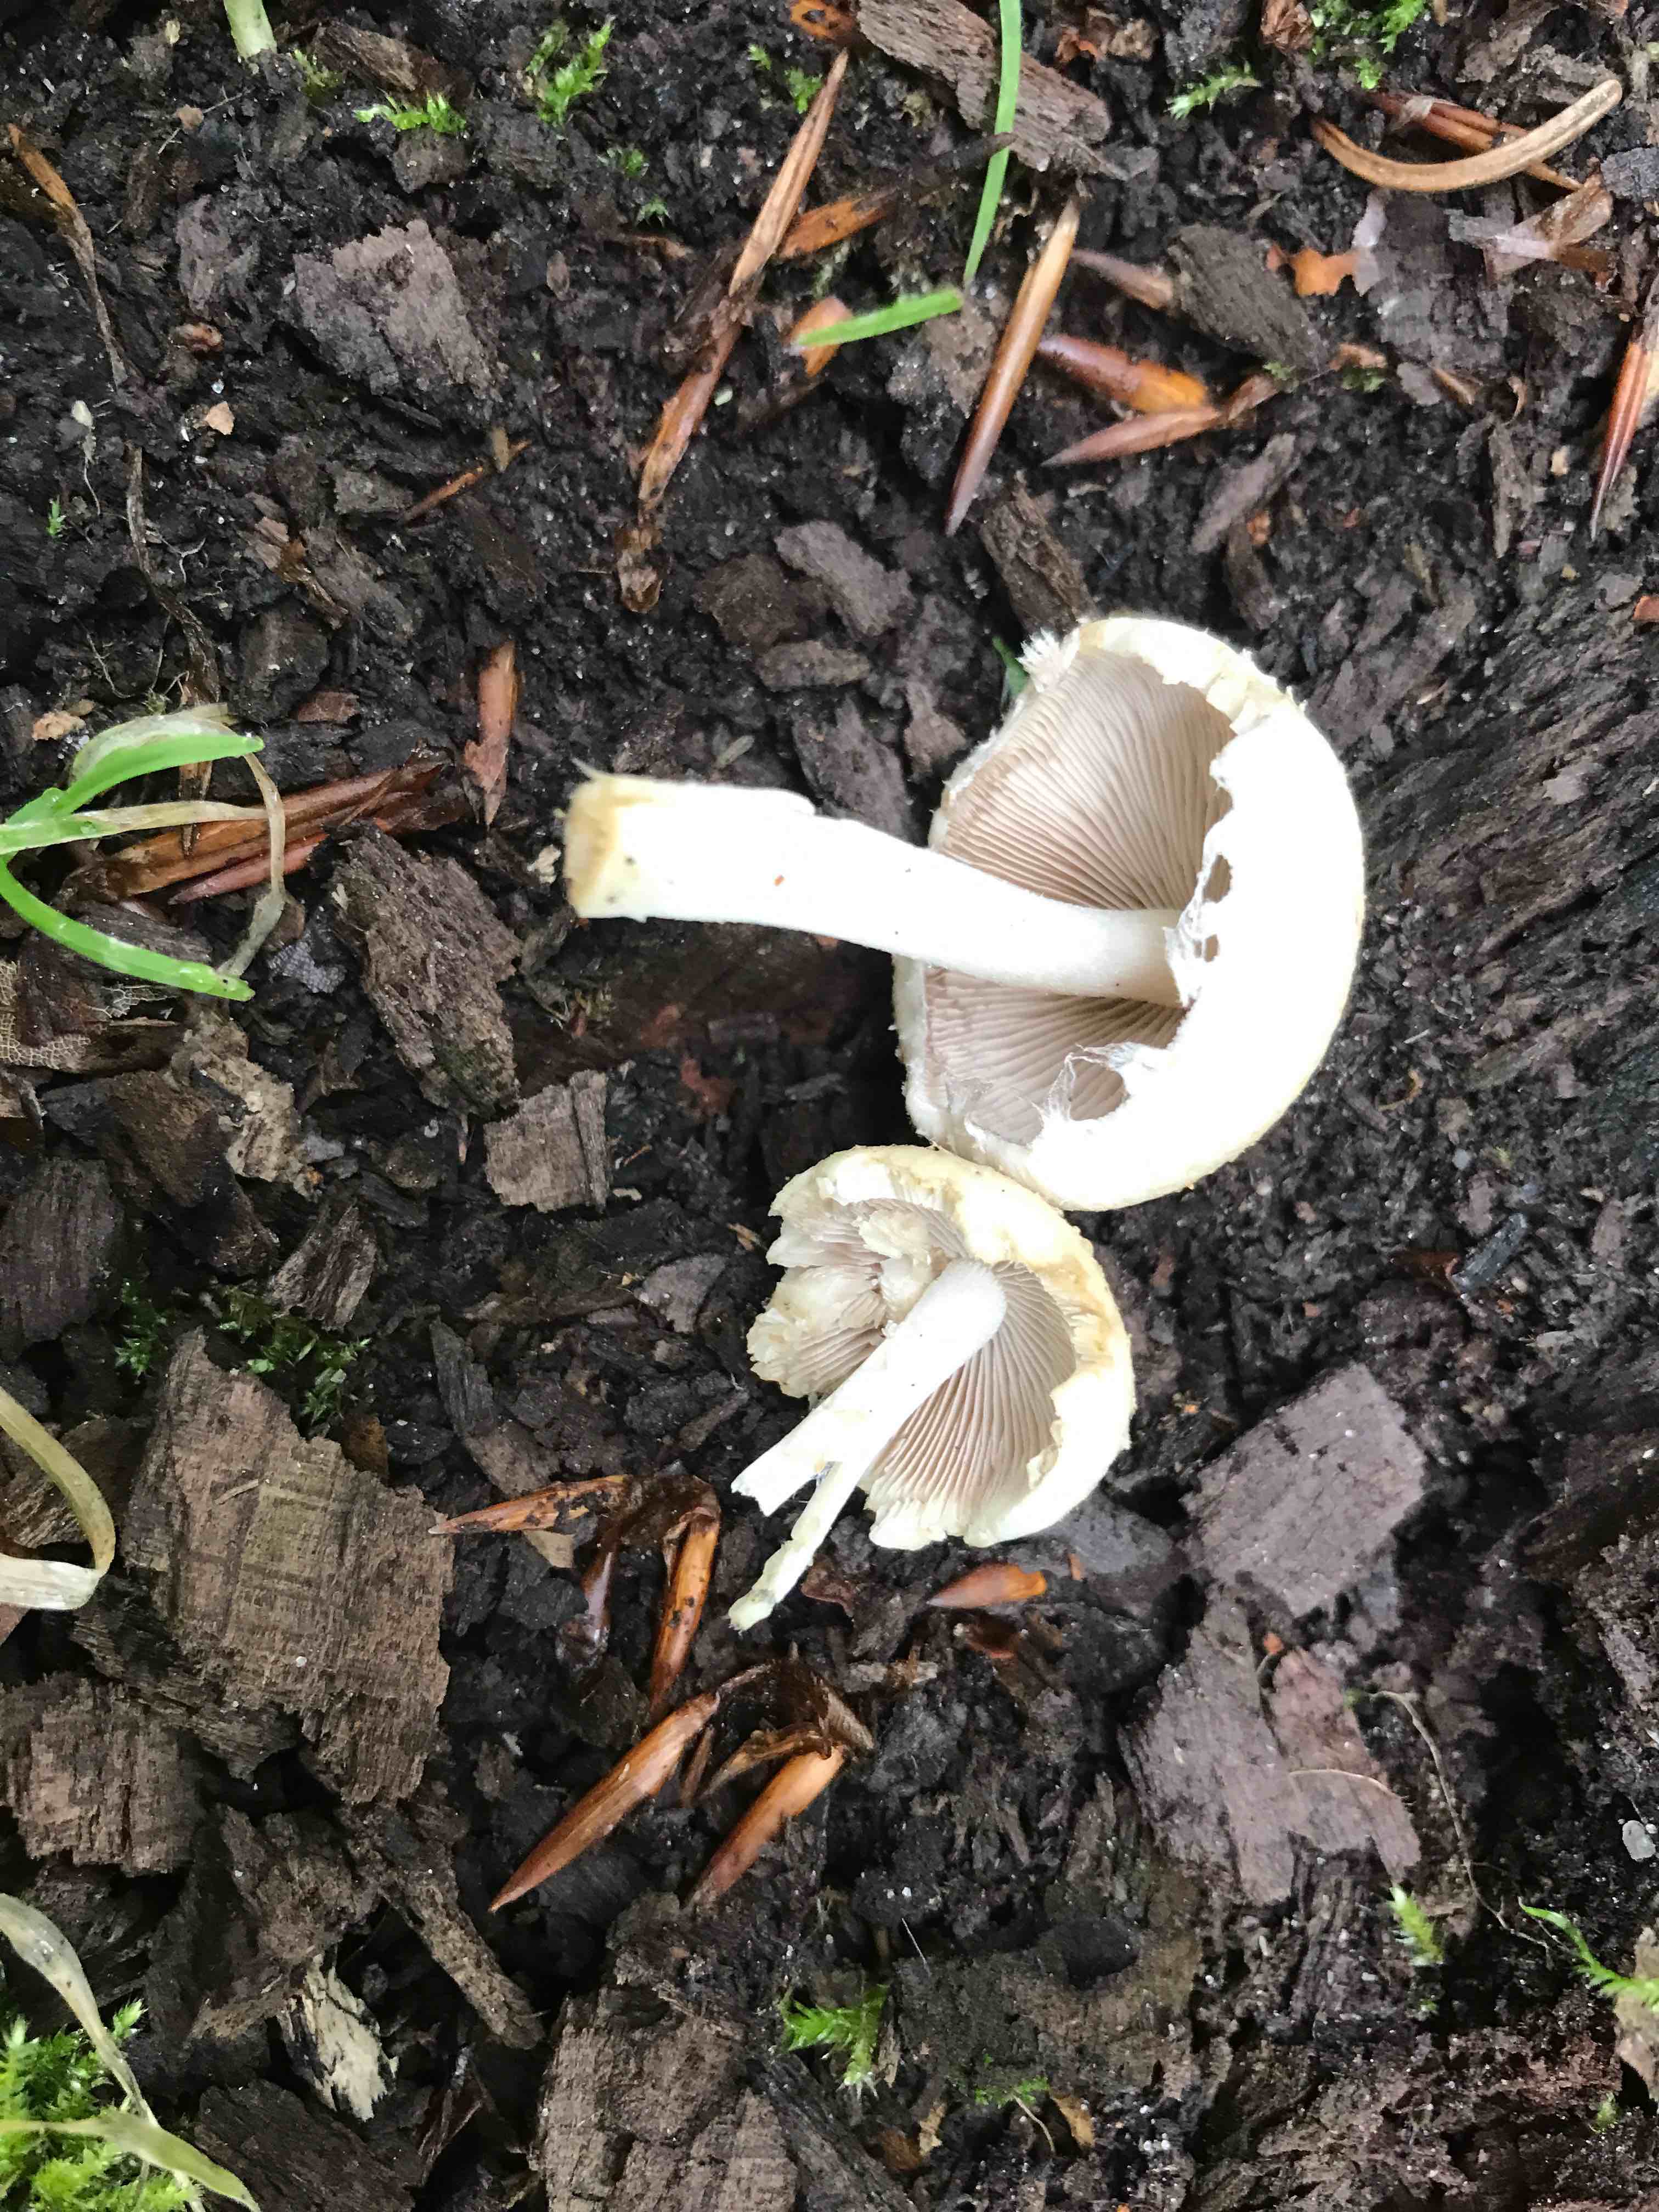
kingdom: Fungi
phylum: Basidiomycota
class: Agaricomycetes
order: Agaricales
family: Psathyrellaceae
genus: Candolleomyces
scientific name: Candolleomyces candolleanus
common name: Candolles mørkhat
